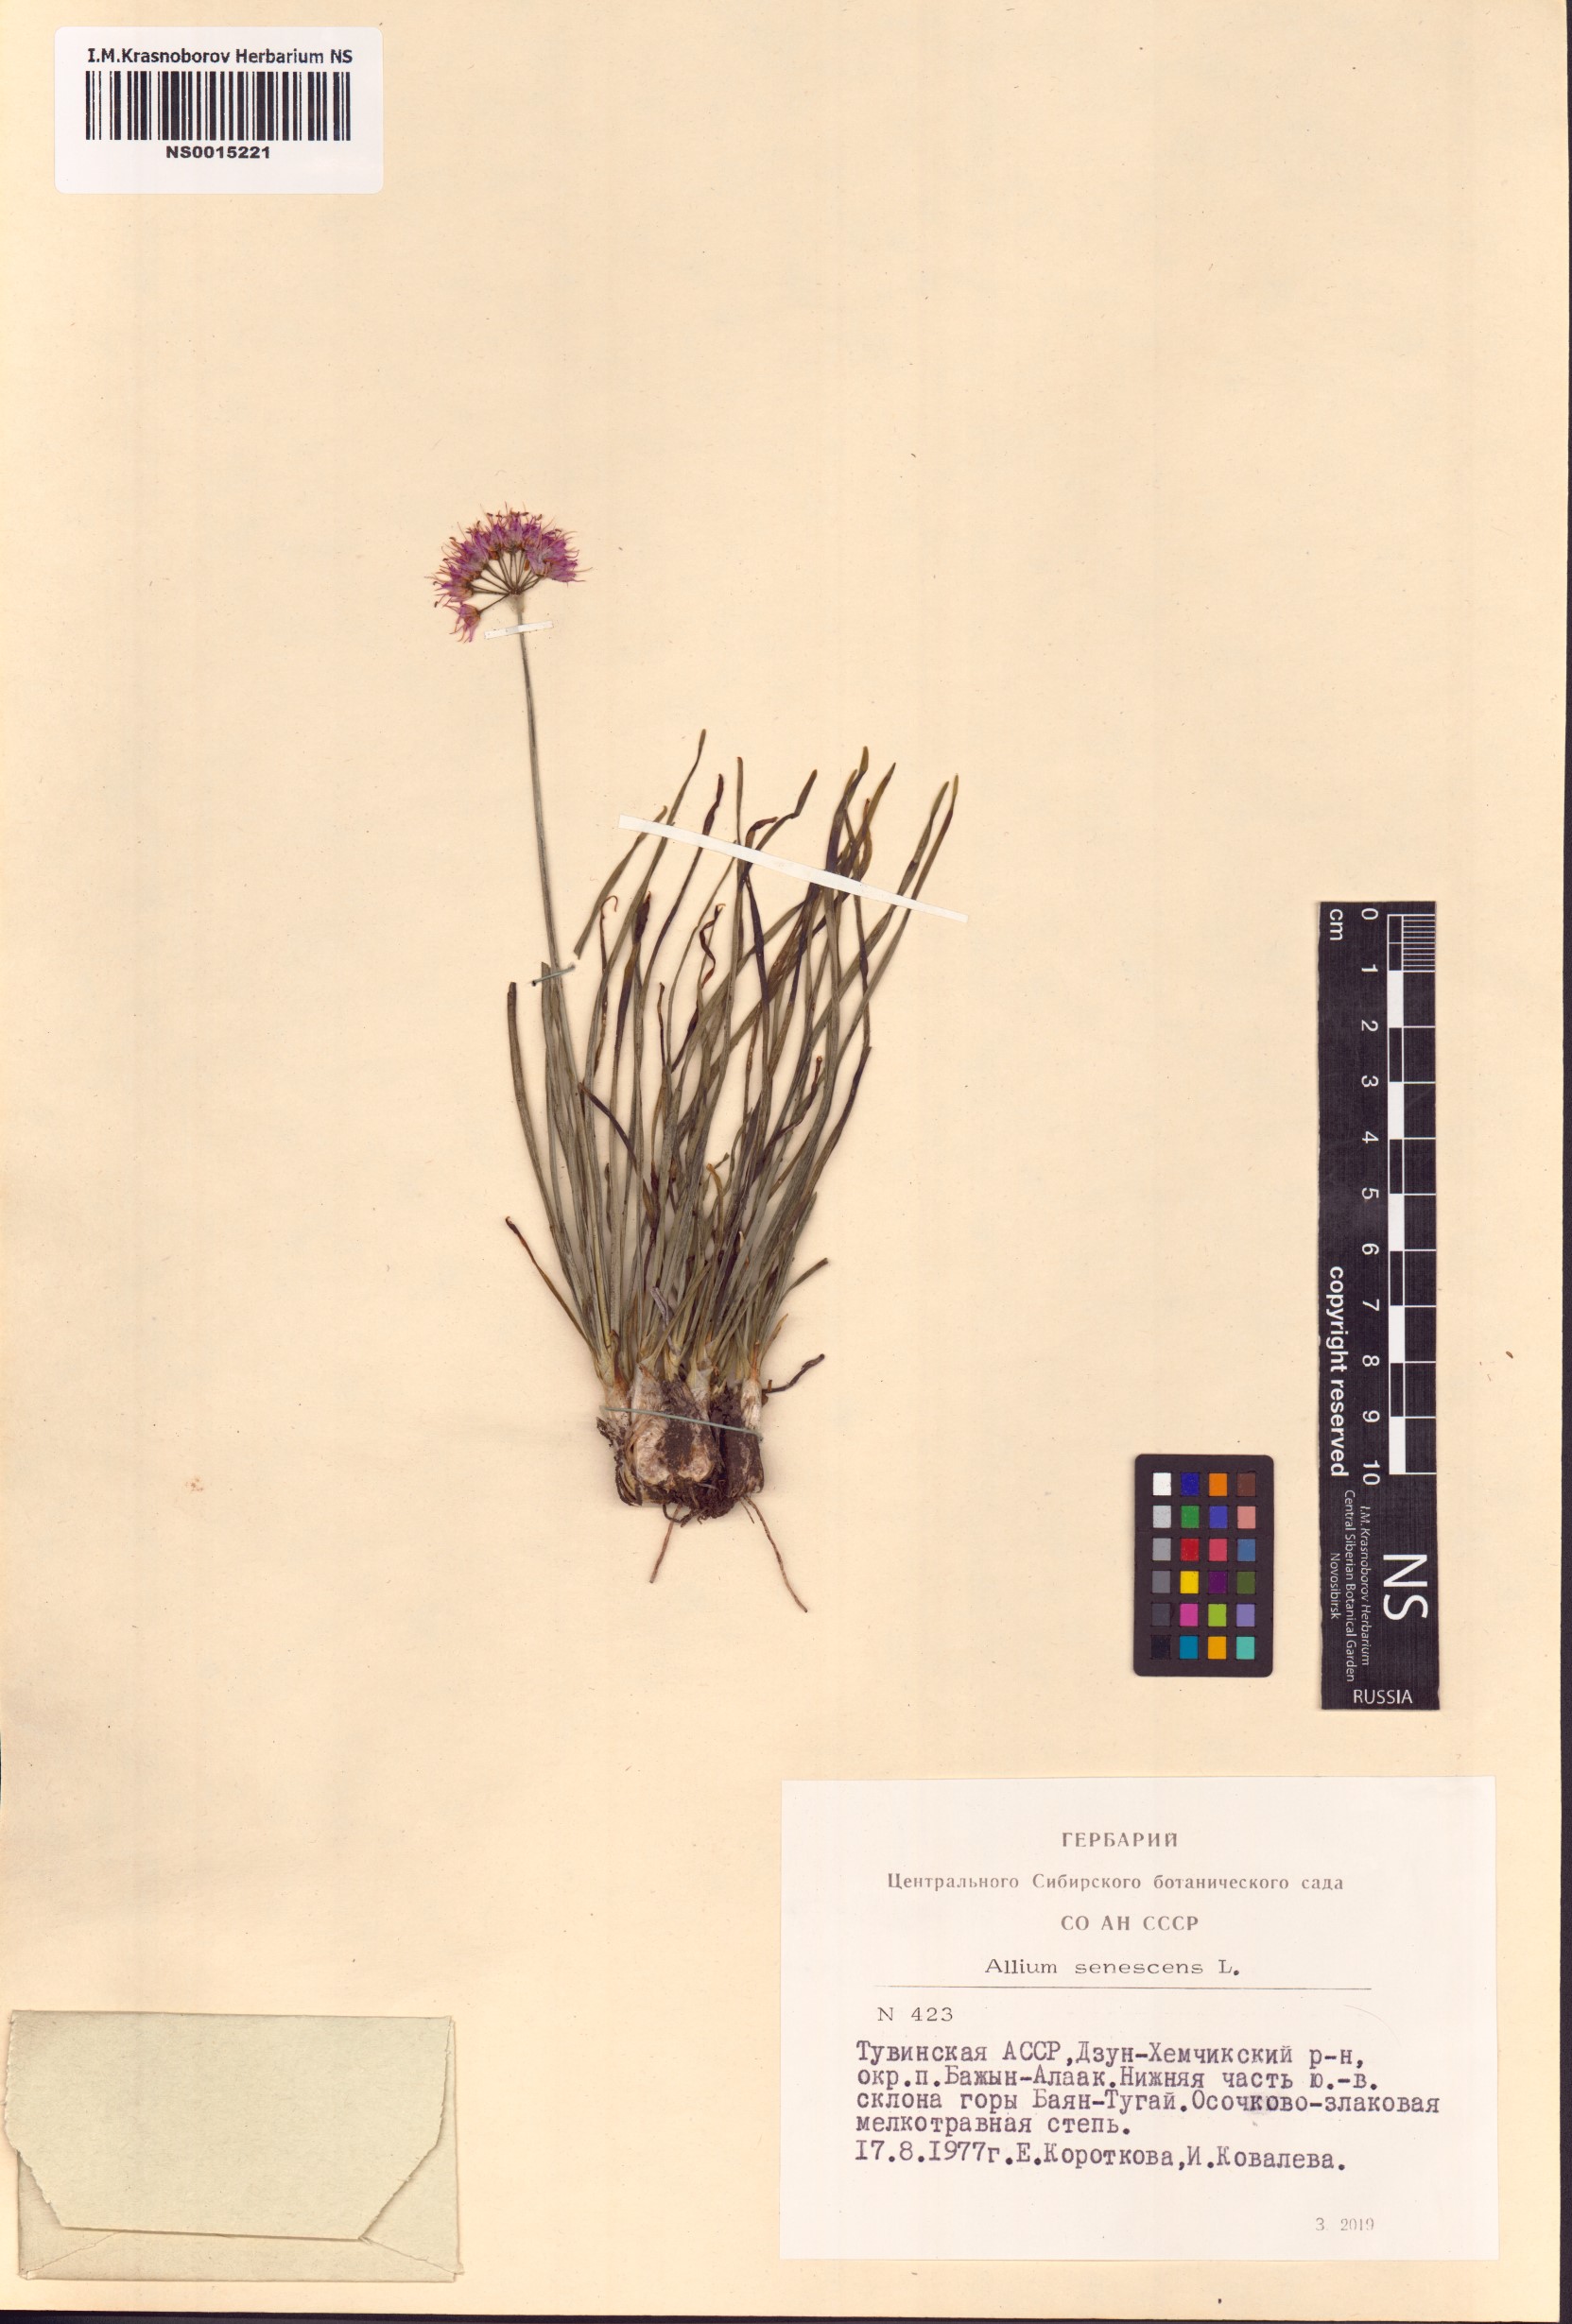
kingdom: Plantae
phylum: Tracheophyta
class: Liliopsida
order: Asparagales
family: Amaryllidaceae
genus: Allium
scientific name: Allium senescens
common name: German garlic
